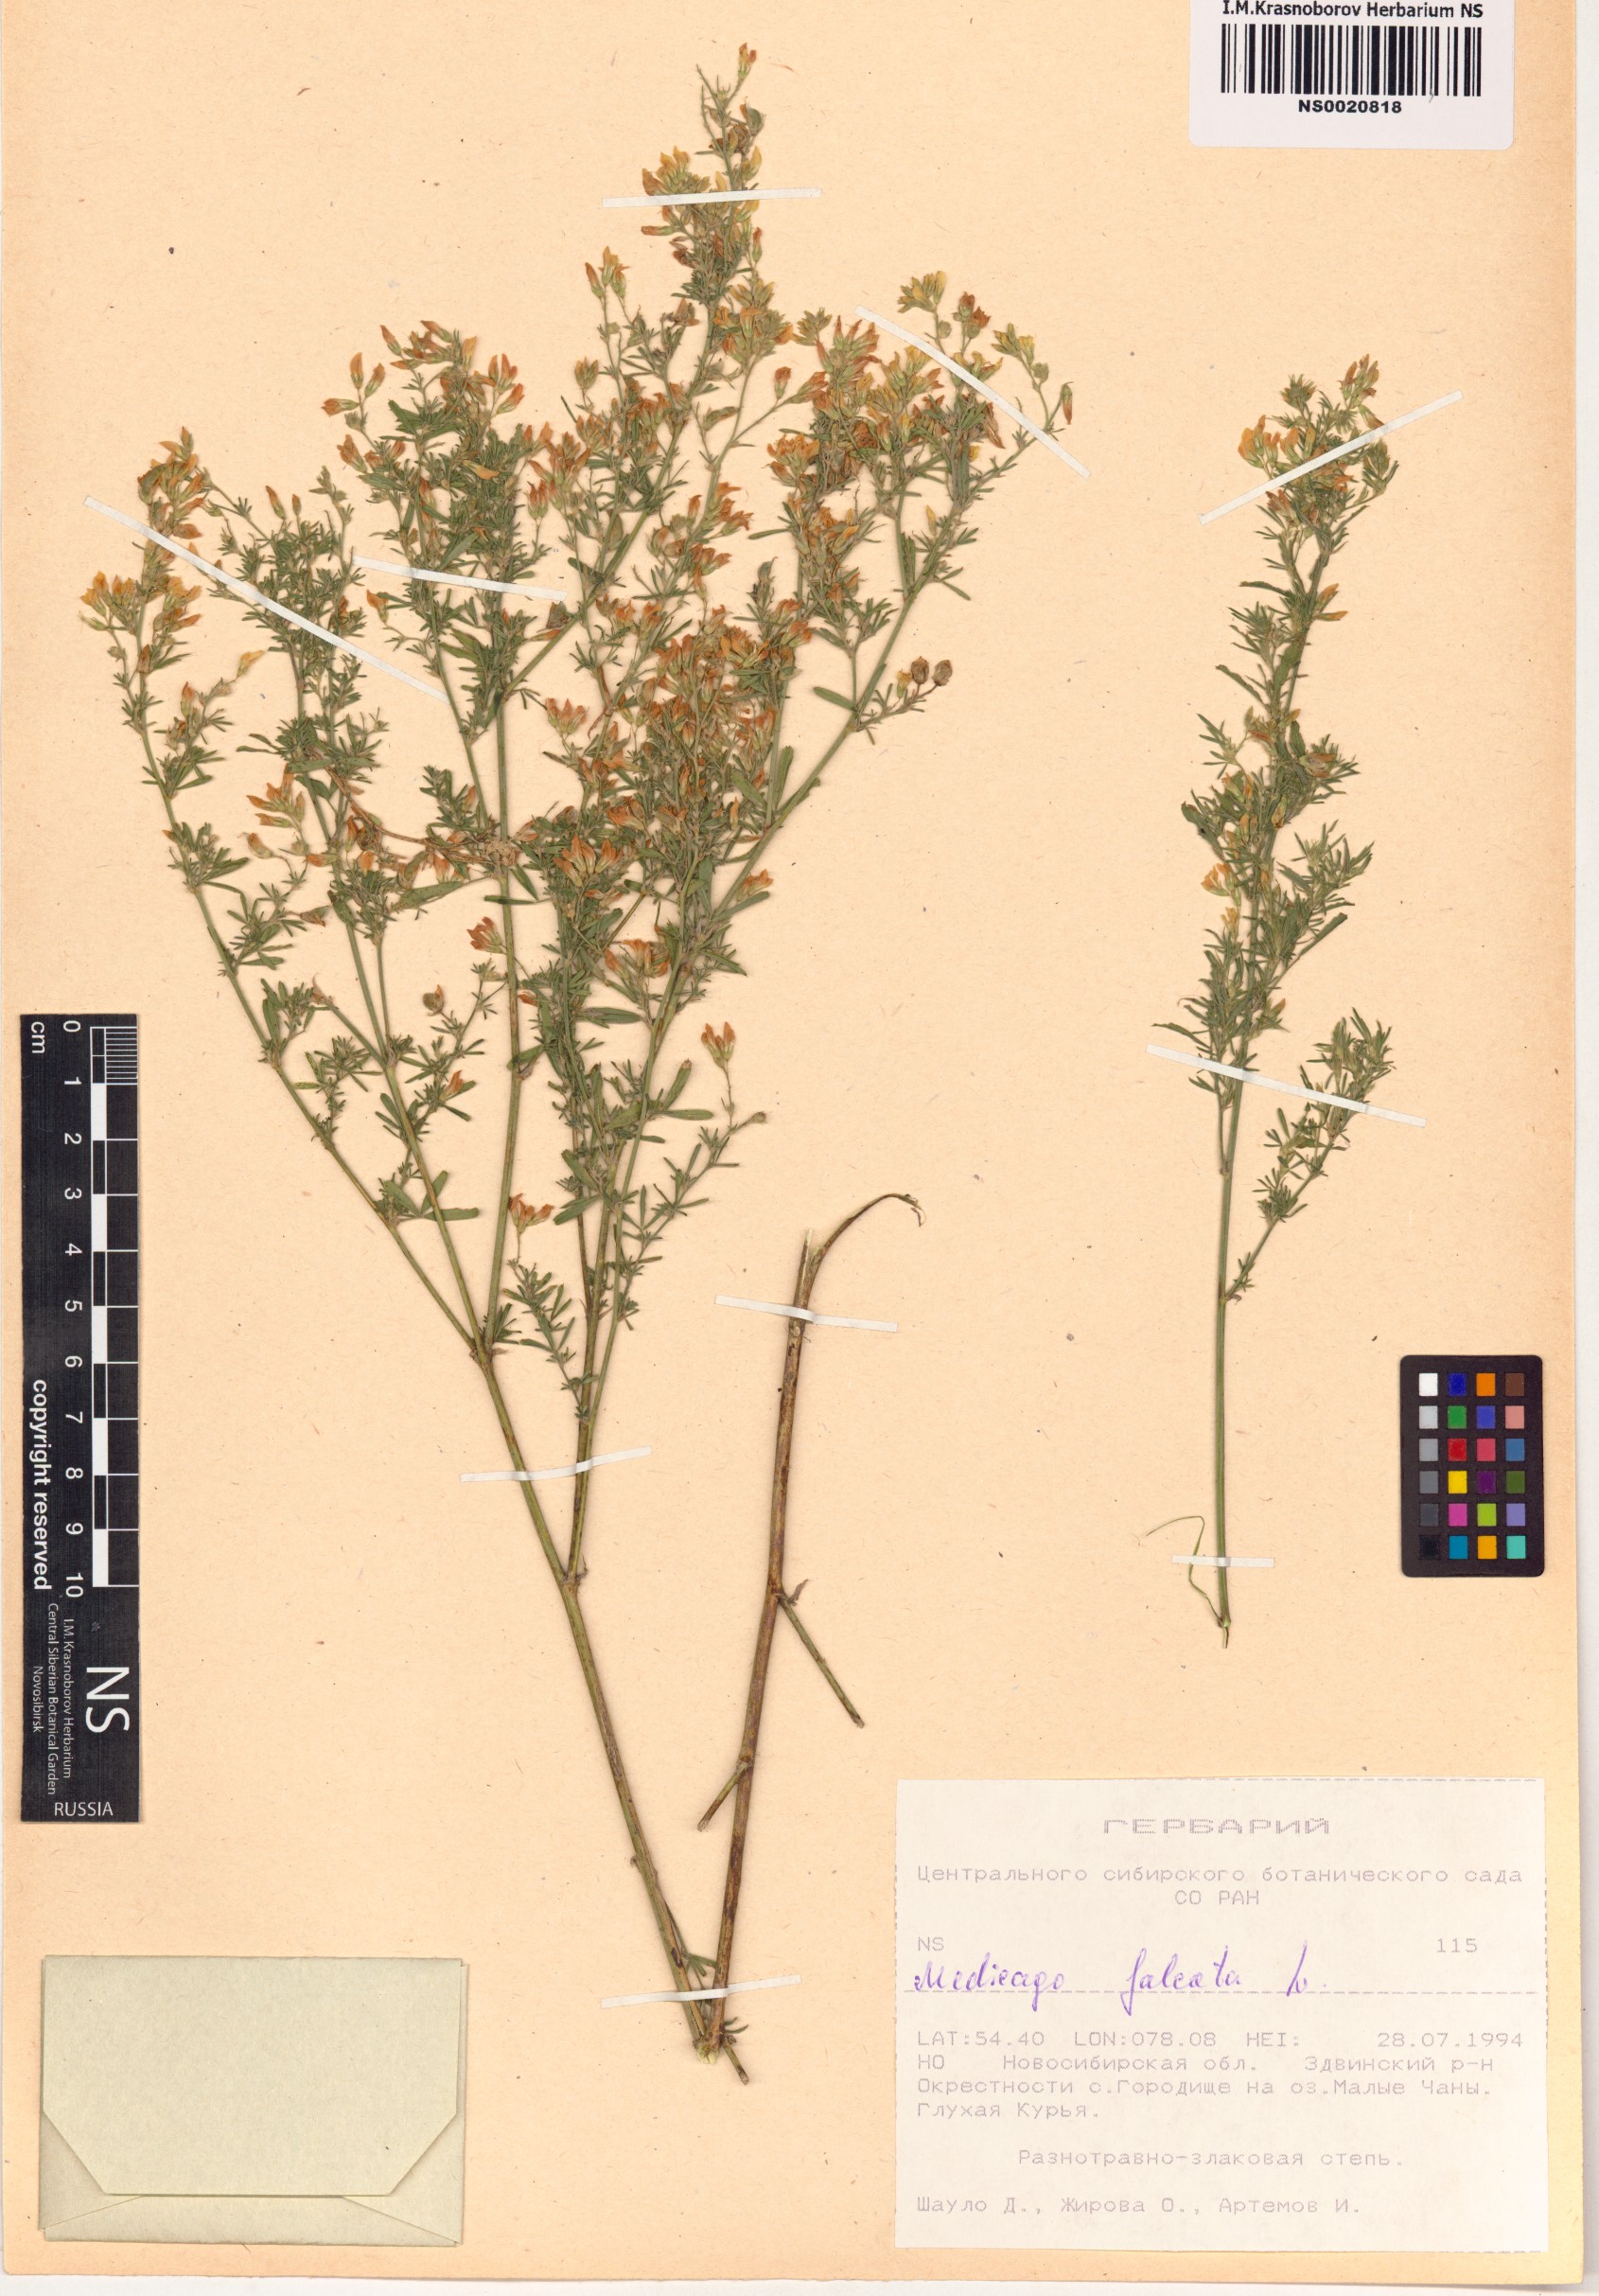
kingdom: Plantae
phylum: Tracheophyta
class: Magnoliopsida
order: Fabales
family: Fabaceae
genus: Medicago
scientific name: Medicago falcata
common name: Sickle medick
